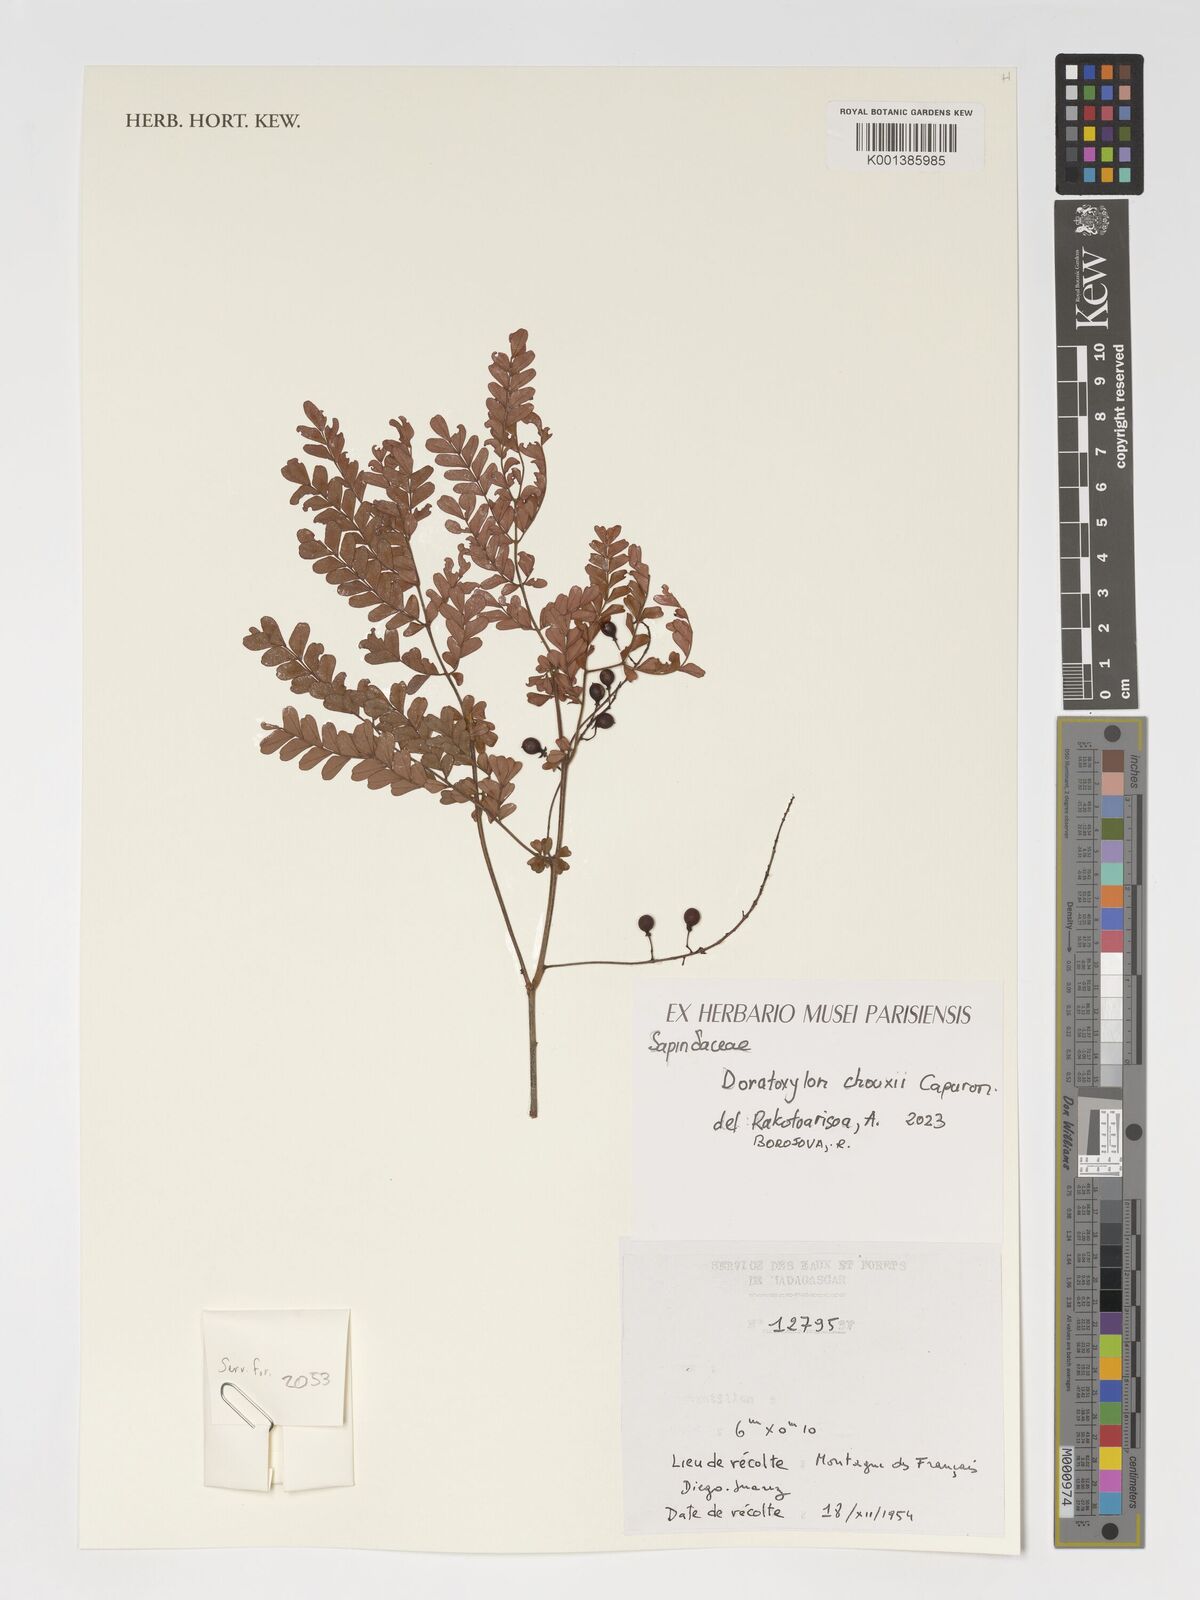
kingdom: Plantae
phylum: Tracheophyta
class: Magnoliopsida
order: Sapindales
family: Sapindaceae
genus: Doratoxylon
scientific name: Doratoxylon chouxii
